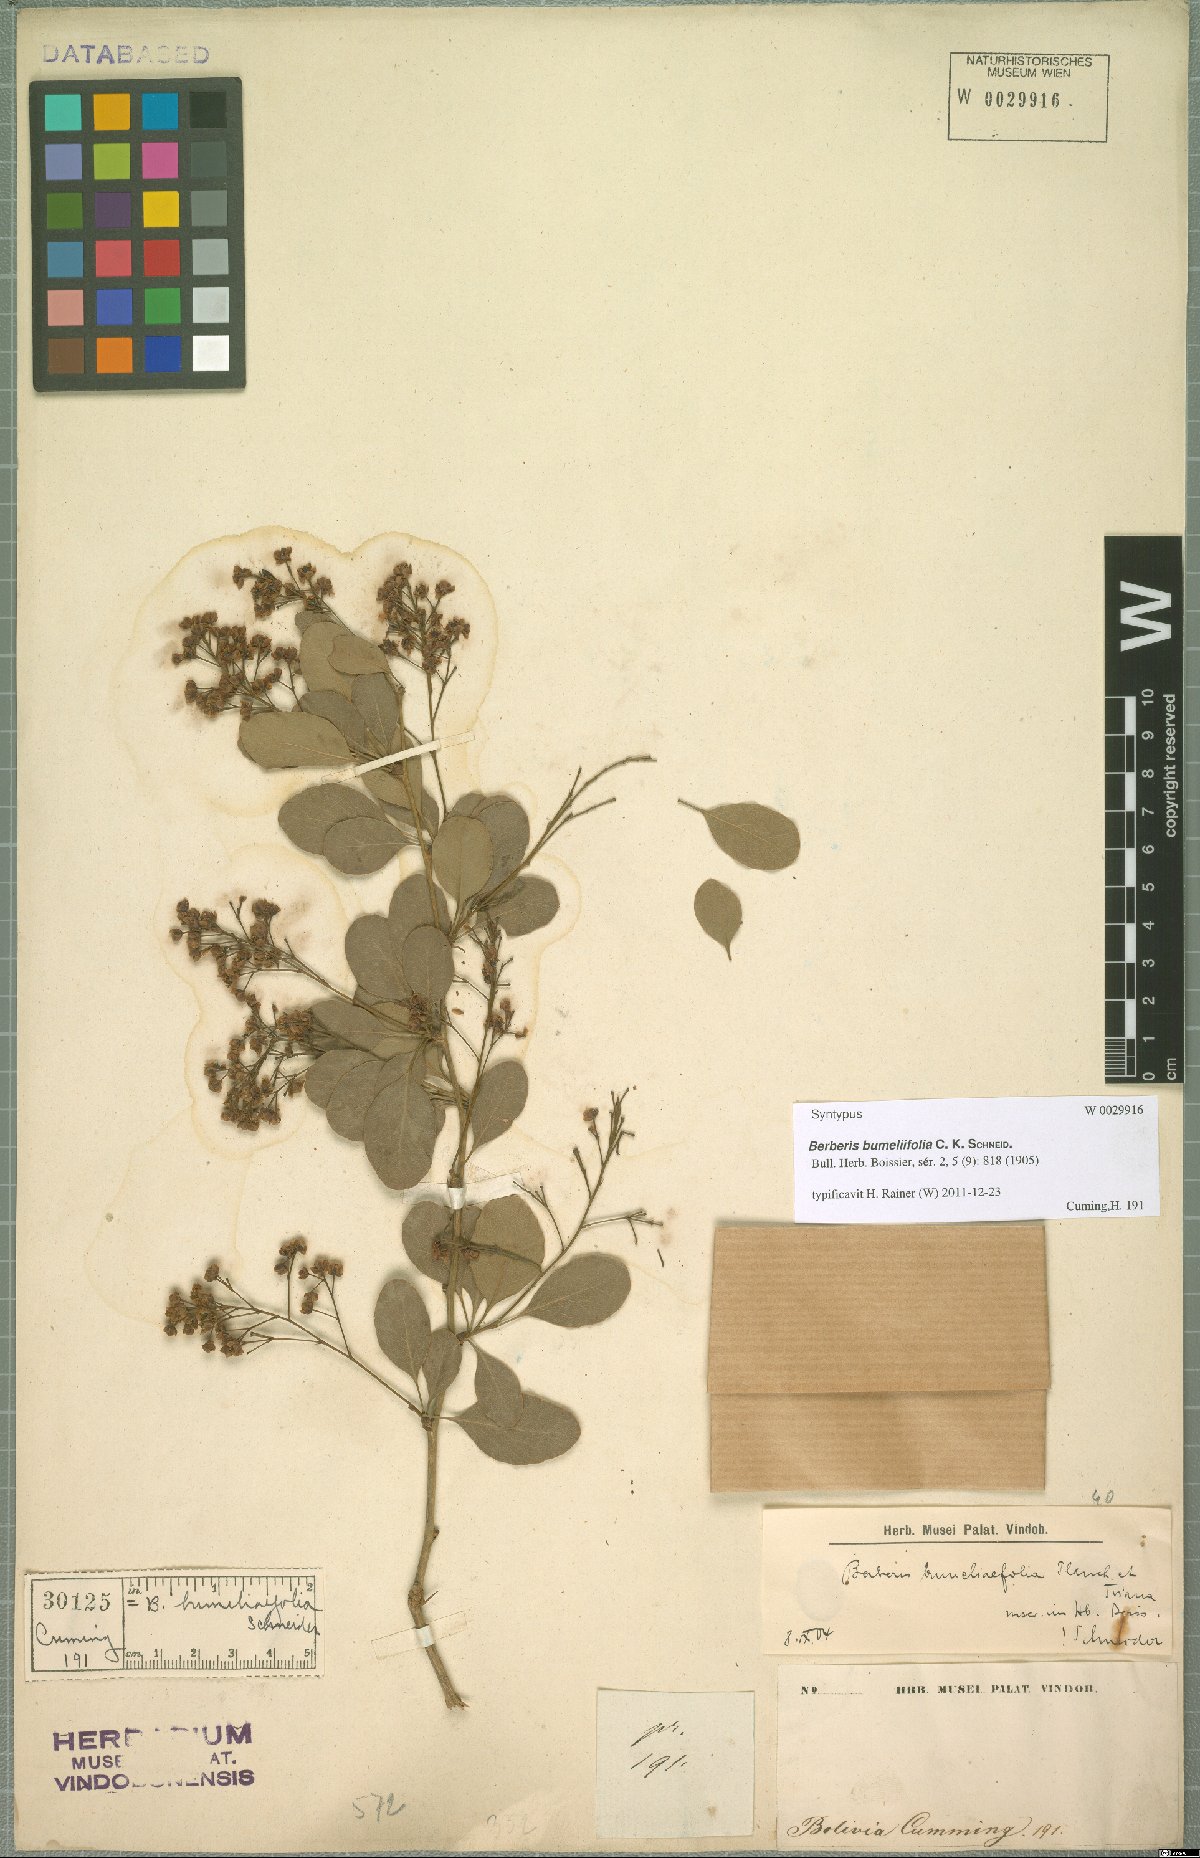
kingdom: Plantae
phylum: Tracheophyta
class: Magnoliopsida
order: Ranunculales
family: Berberidaceae
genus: Berberis
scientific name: Berberis bumeliifolia
